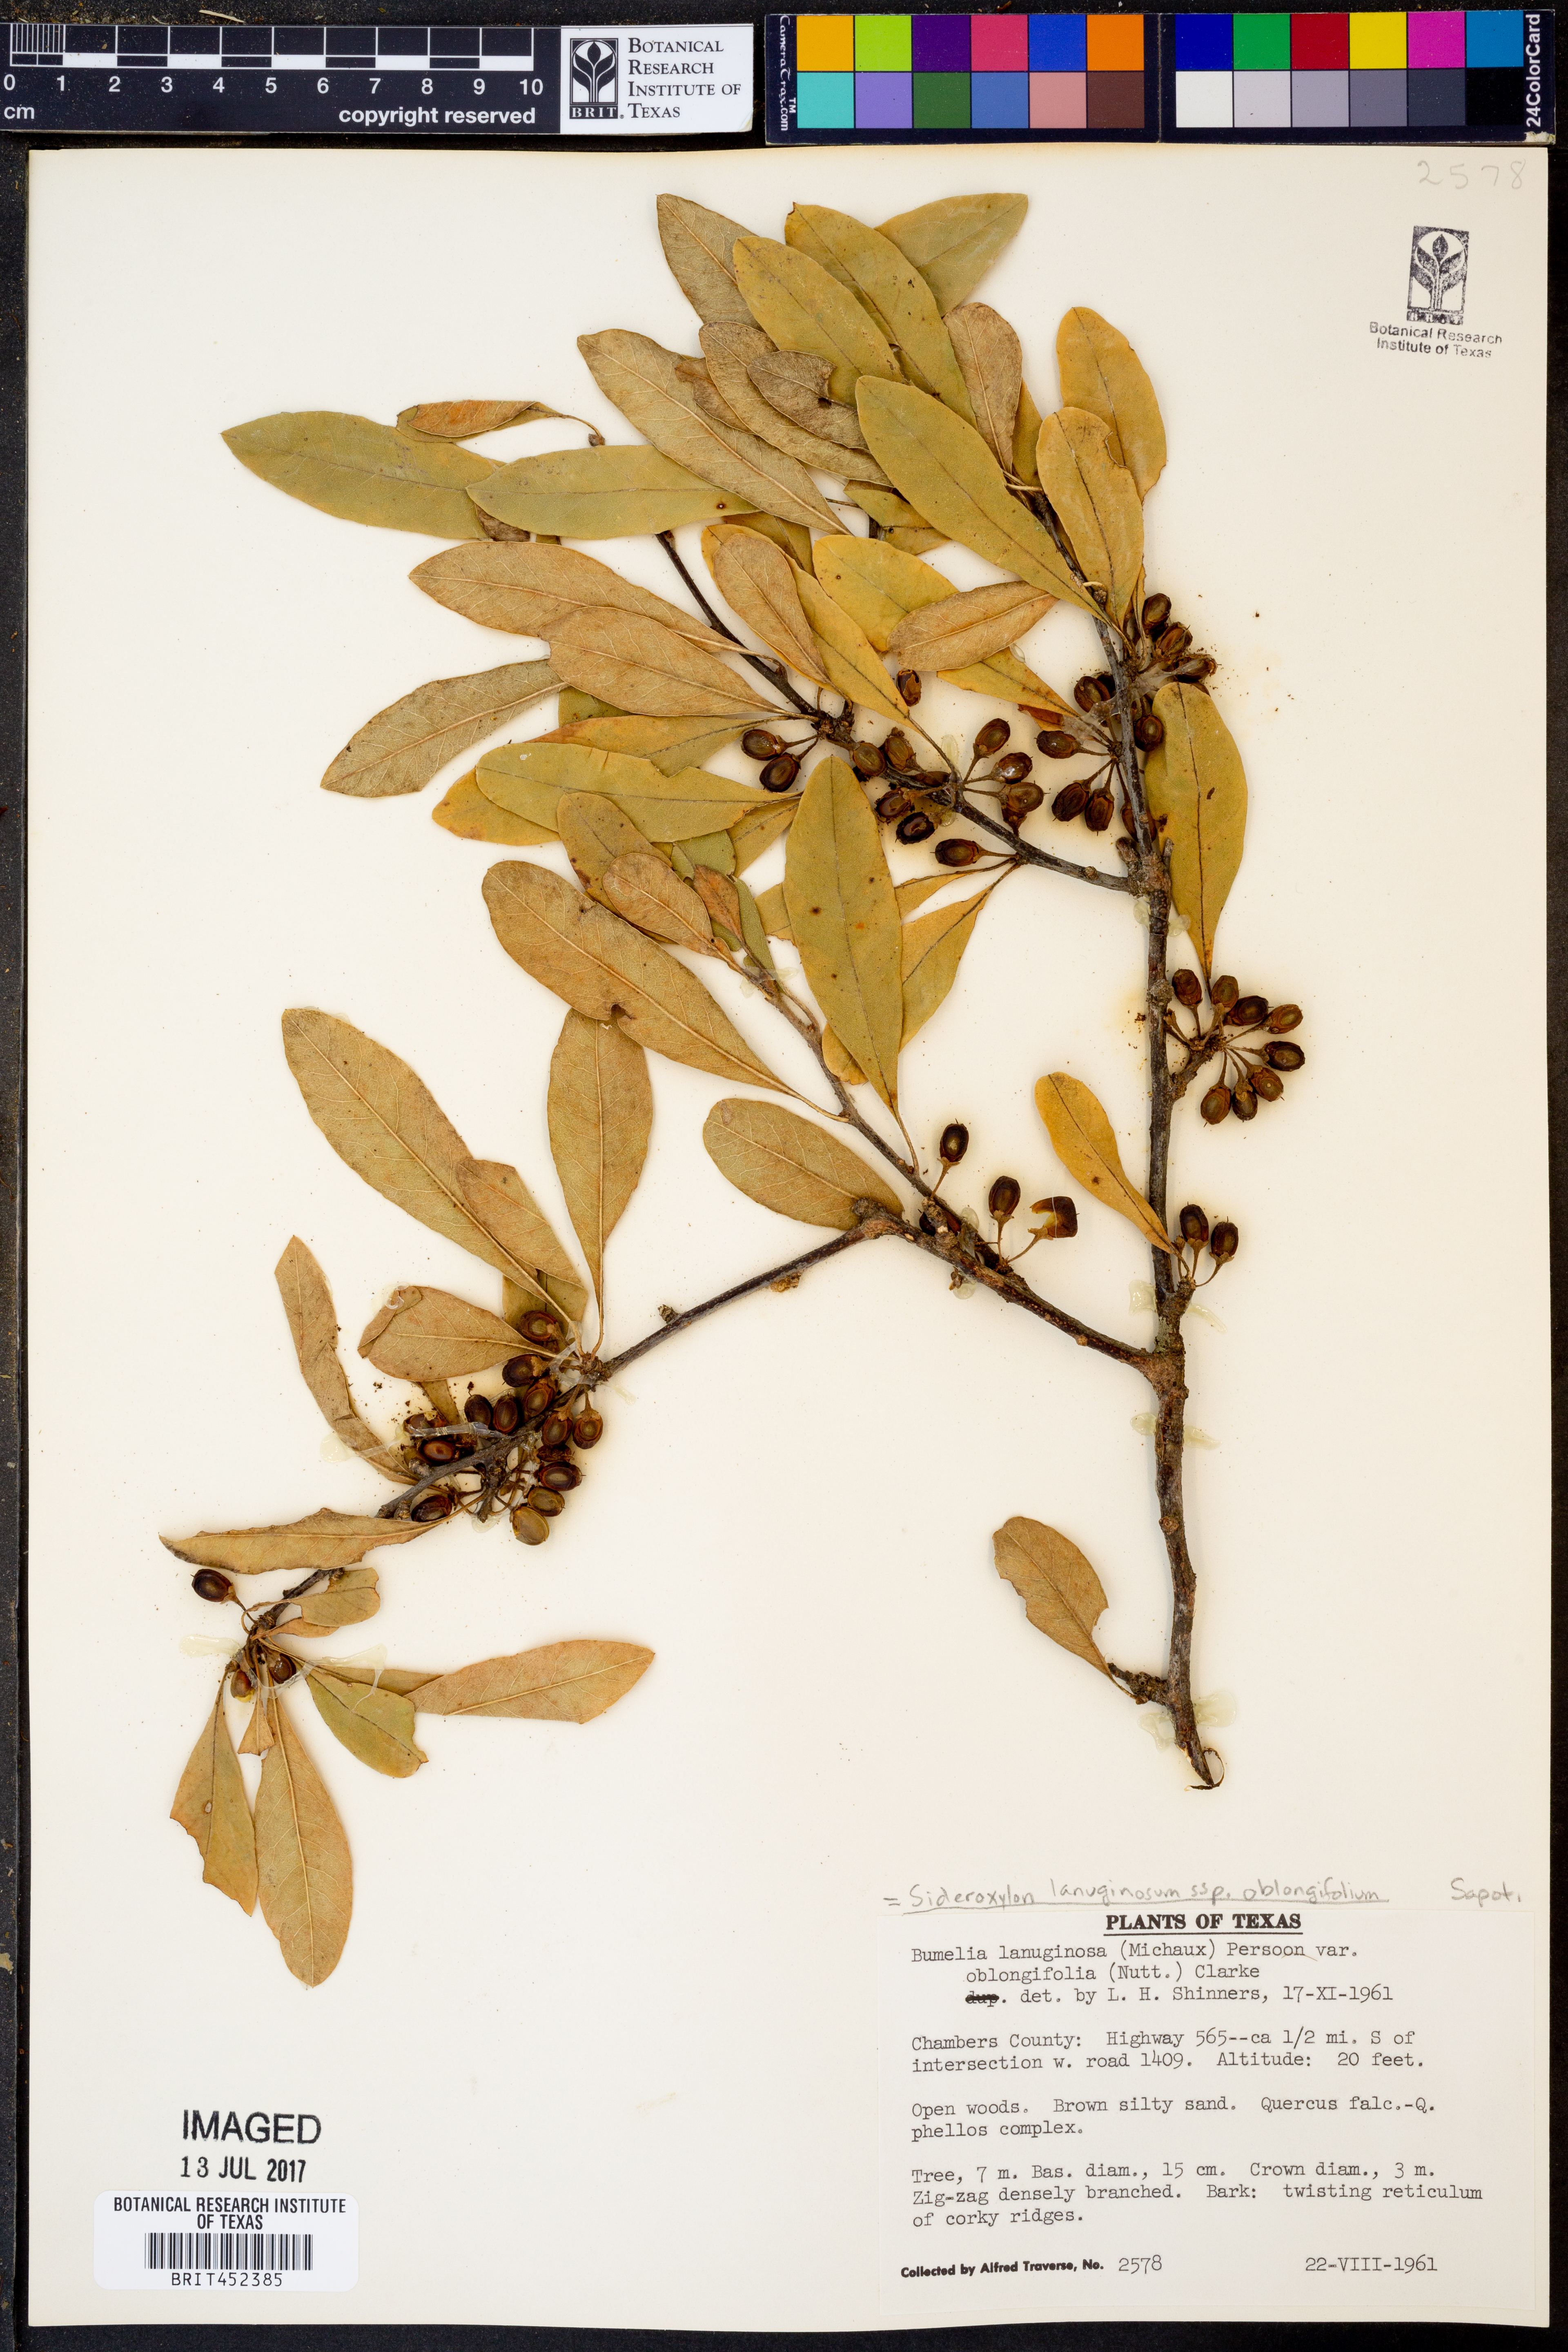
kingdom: Plantae
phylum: Tracheophyta
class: Magnoliopsida
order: Ericales
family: Sapotaceae
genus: Sideroxylon
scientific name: Sideroxylon lanuginosum
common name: Chittamwood
